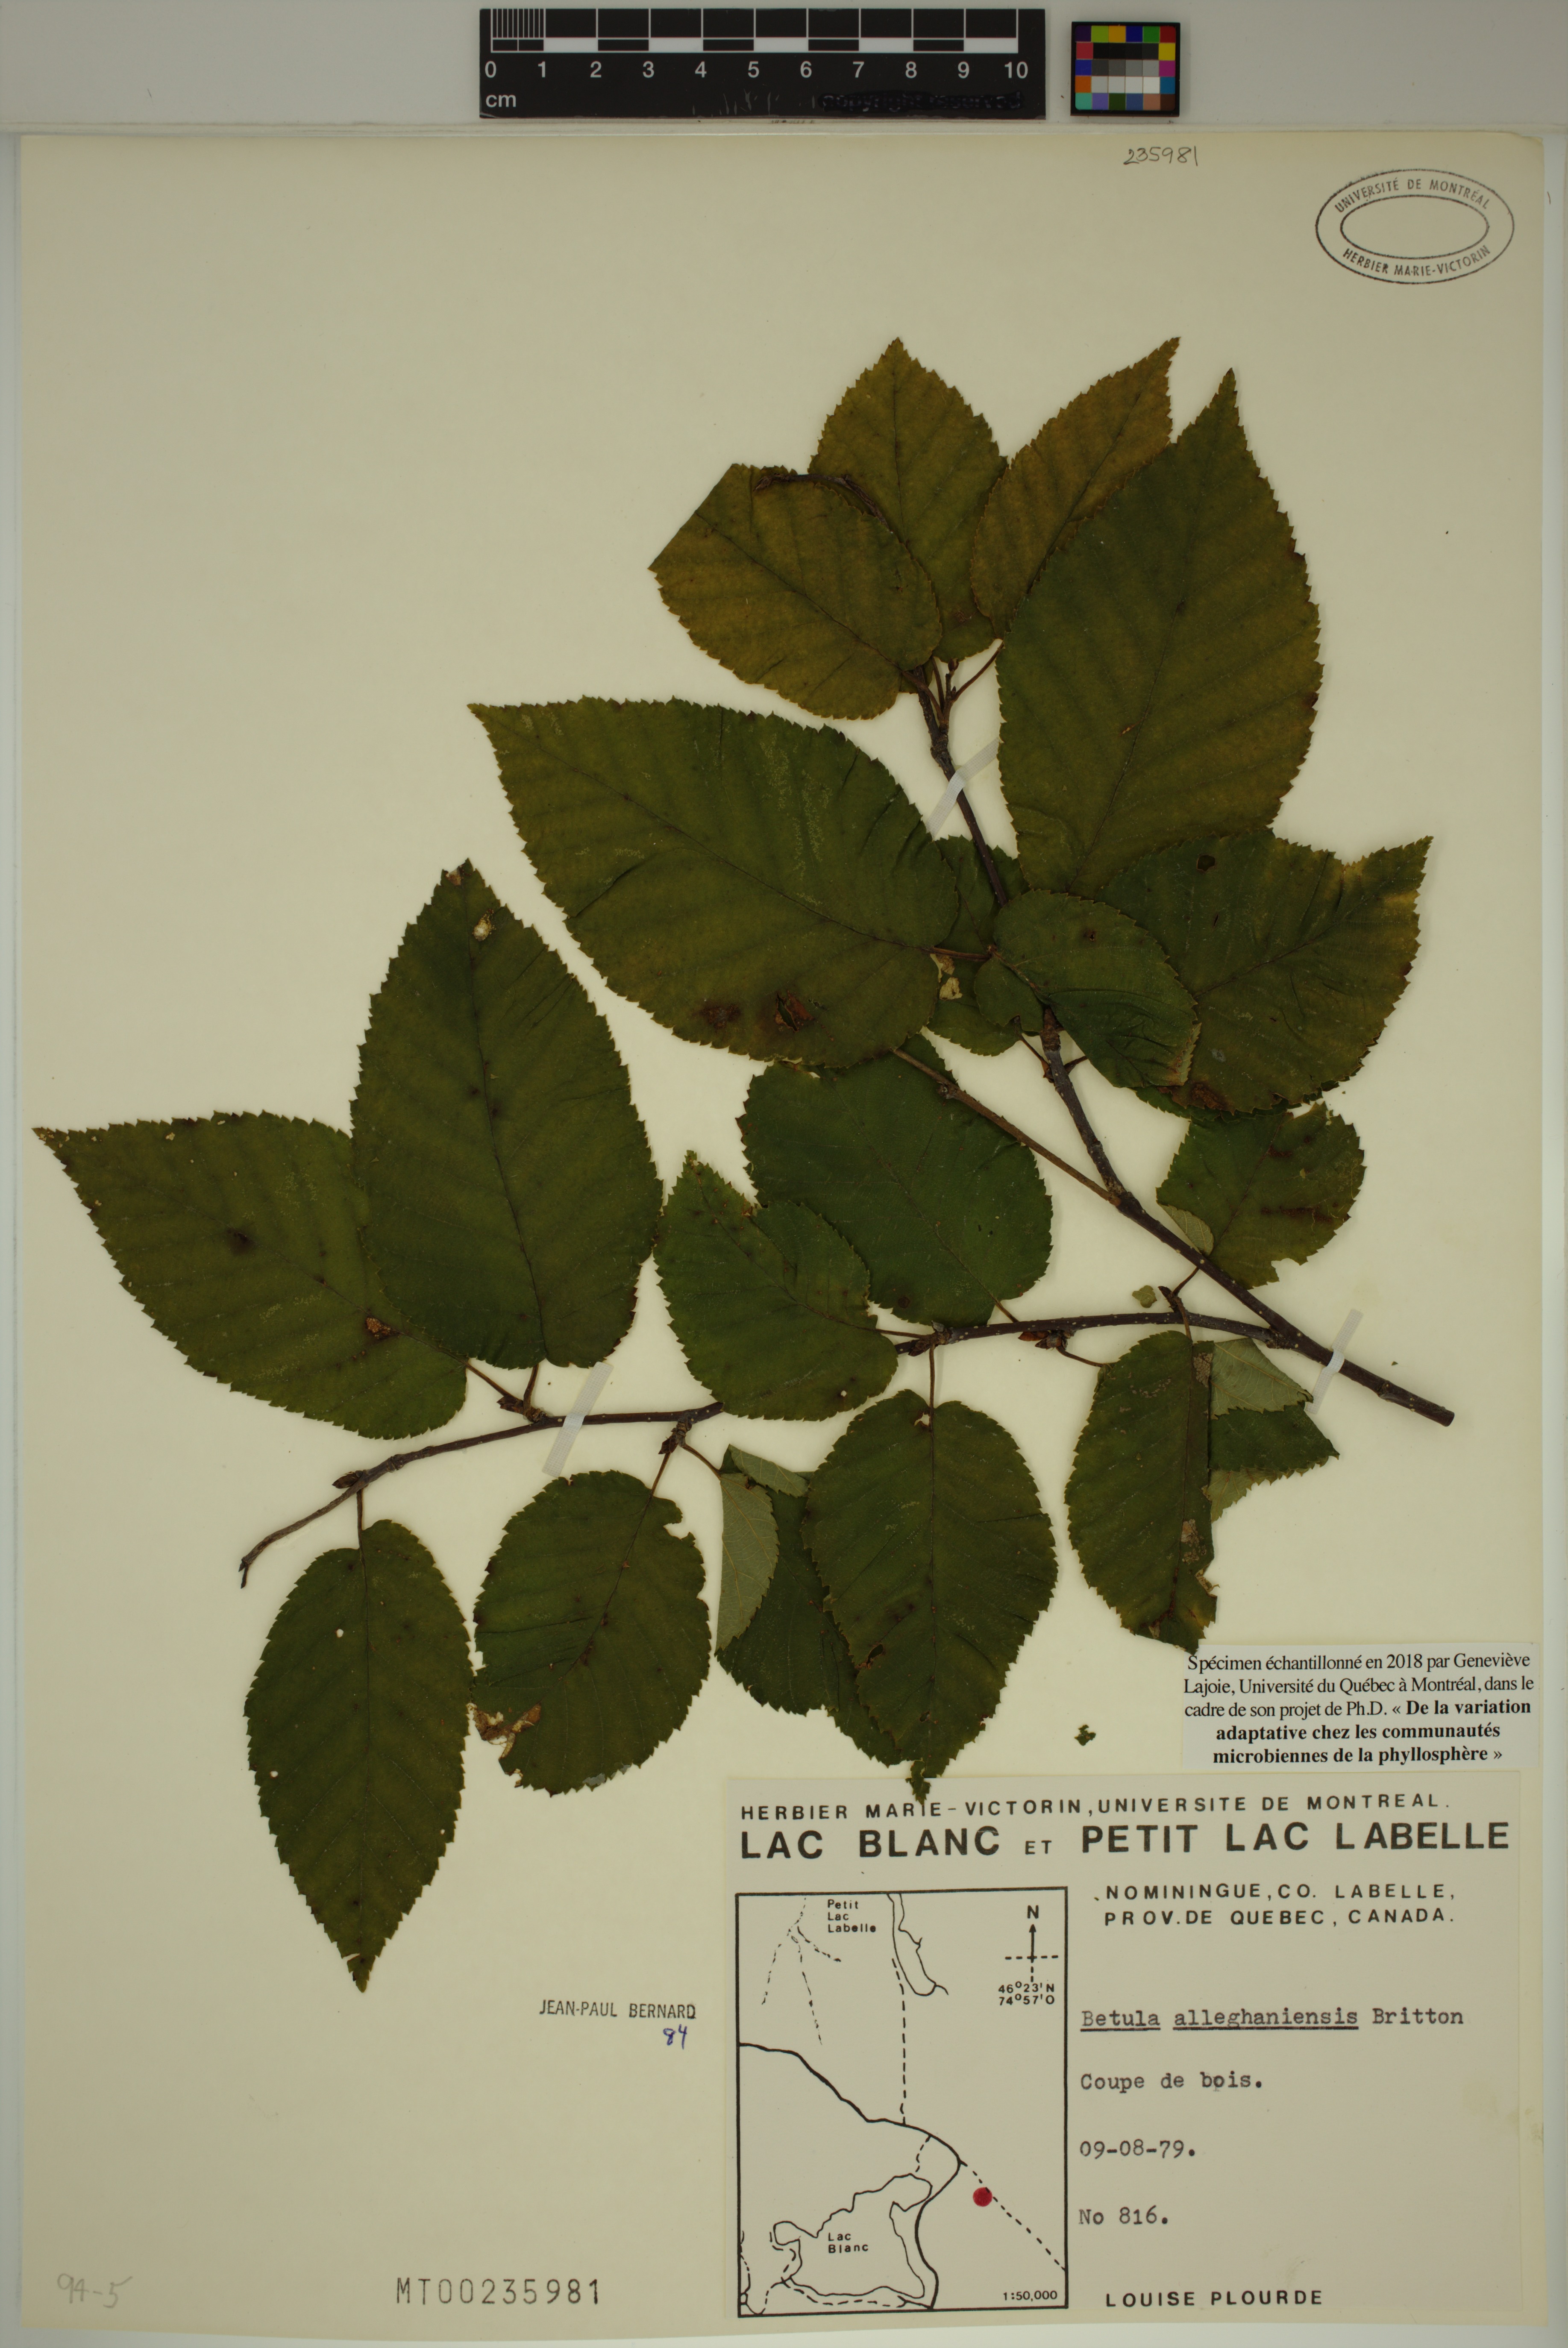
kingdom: Plantae
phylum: Tracheophyta
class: Magnoliopsida
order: Fagales
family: Betulaceae
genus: Betula
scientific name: Betula alleghaniensis
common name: Yellow birch
